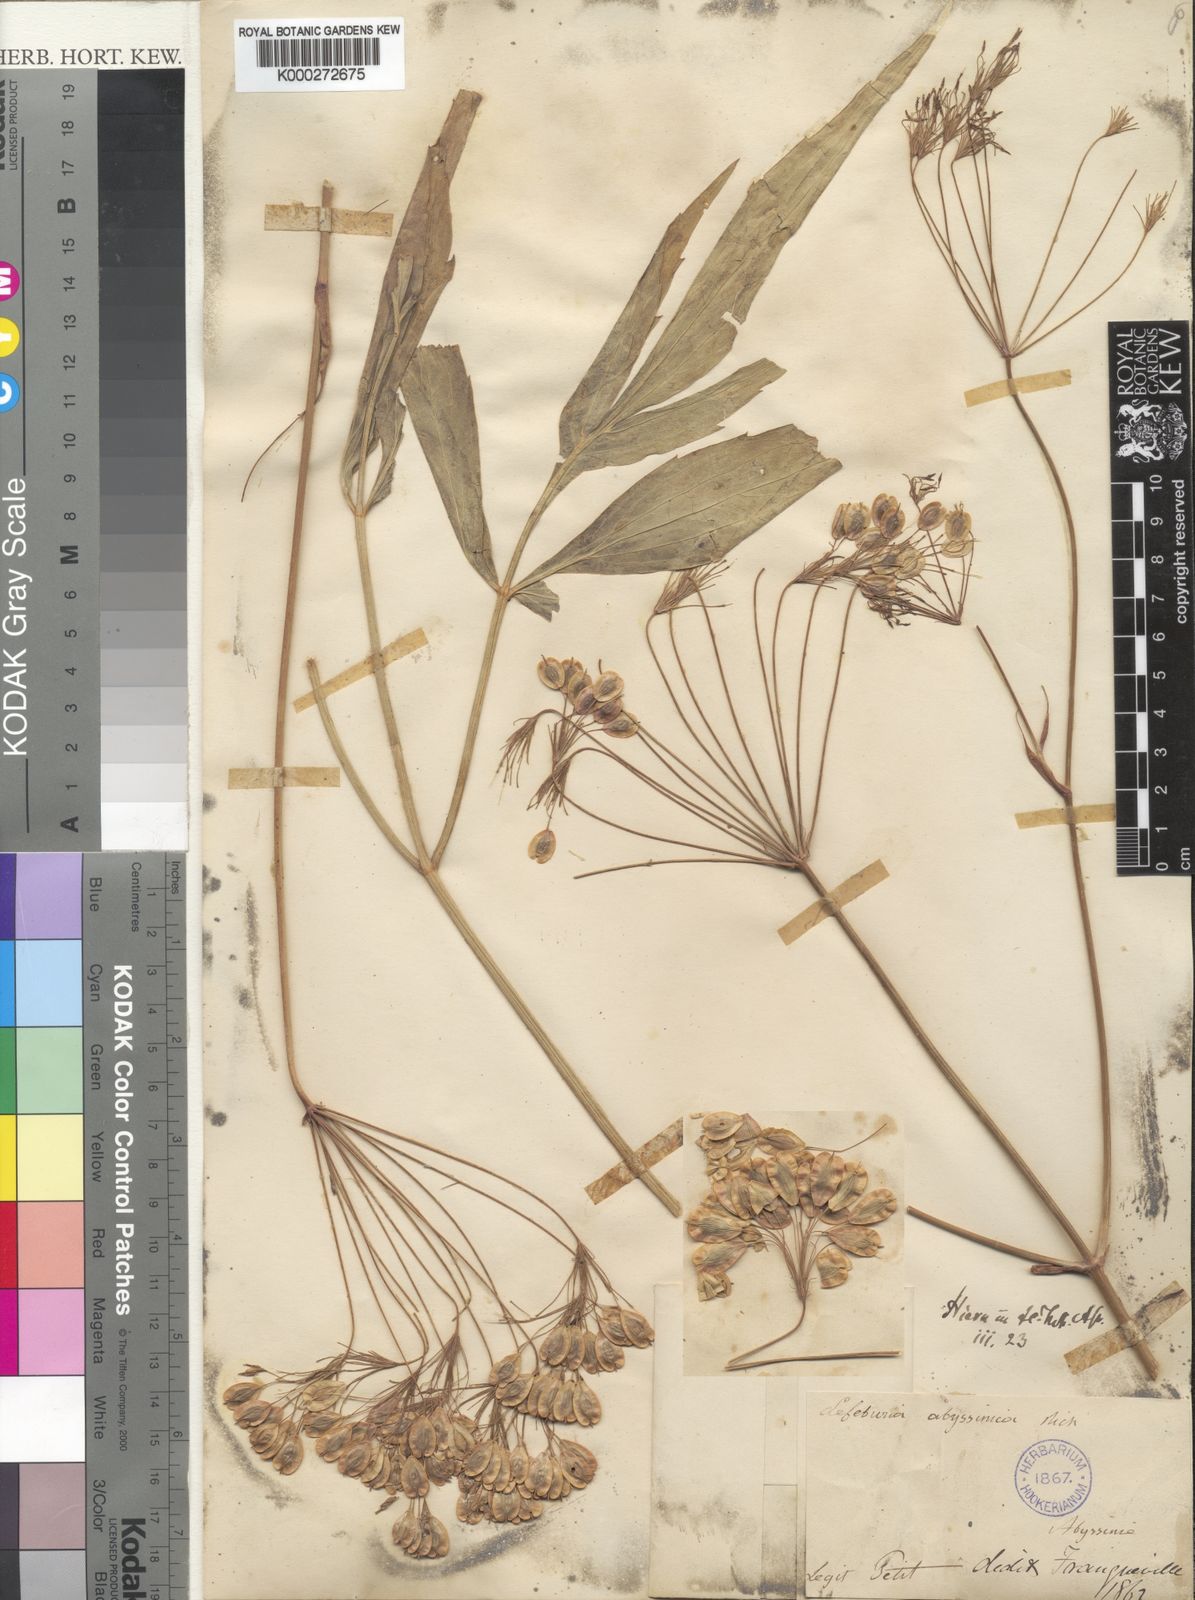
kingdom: Plantae
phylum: Tracheophyta
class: Magnoliopsida
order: Apiales
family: Apiaceae
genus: Lefebvrea
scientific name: Lefebvrea abyssinica
